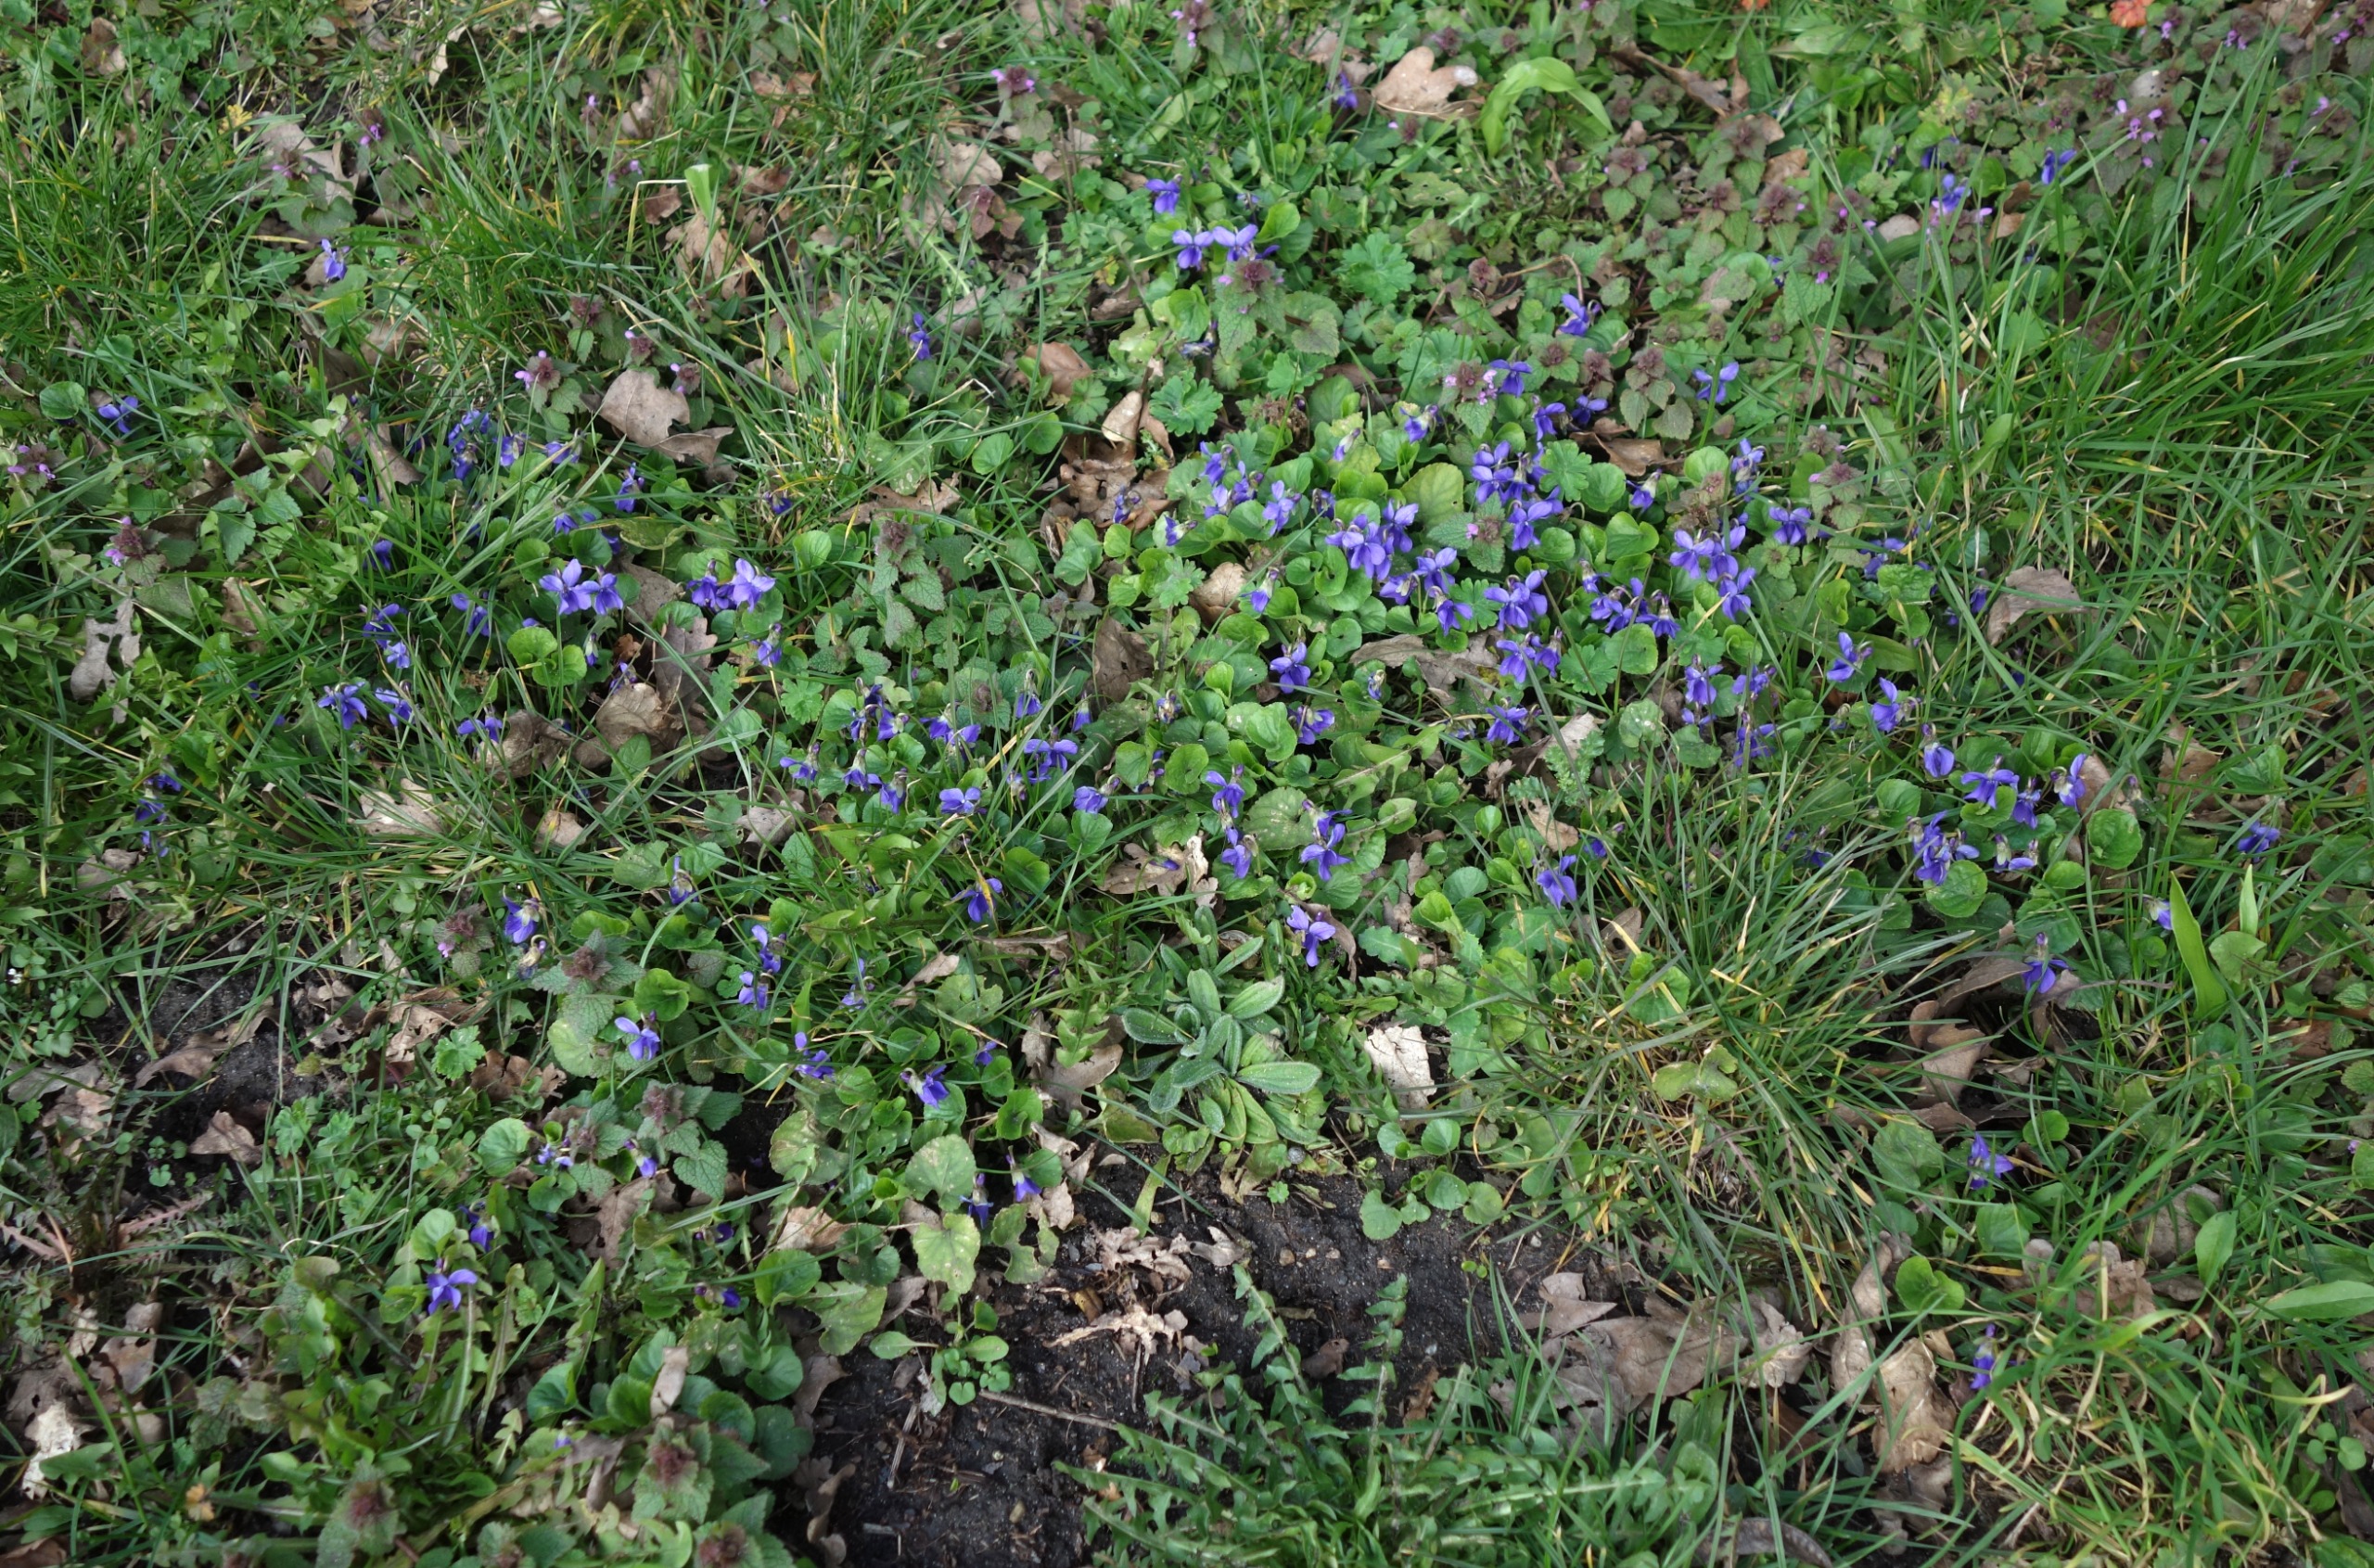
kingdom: Plantae
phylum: Tracheophyta
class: Magnoliopsida
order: Malpighiales
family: Violaceae
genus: Viola
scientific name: Viola odorata
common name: Marts-viol
